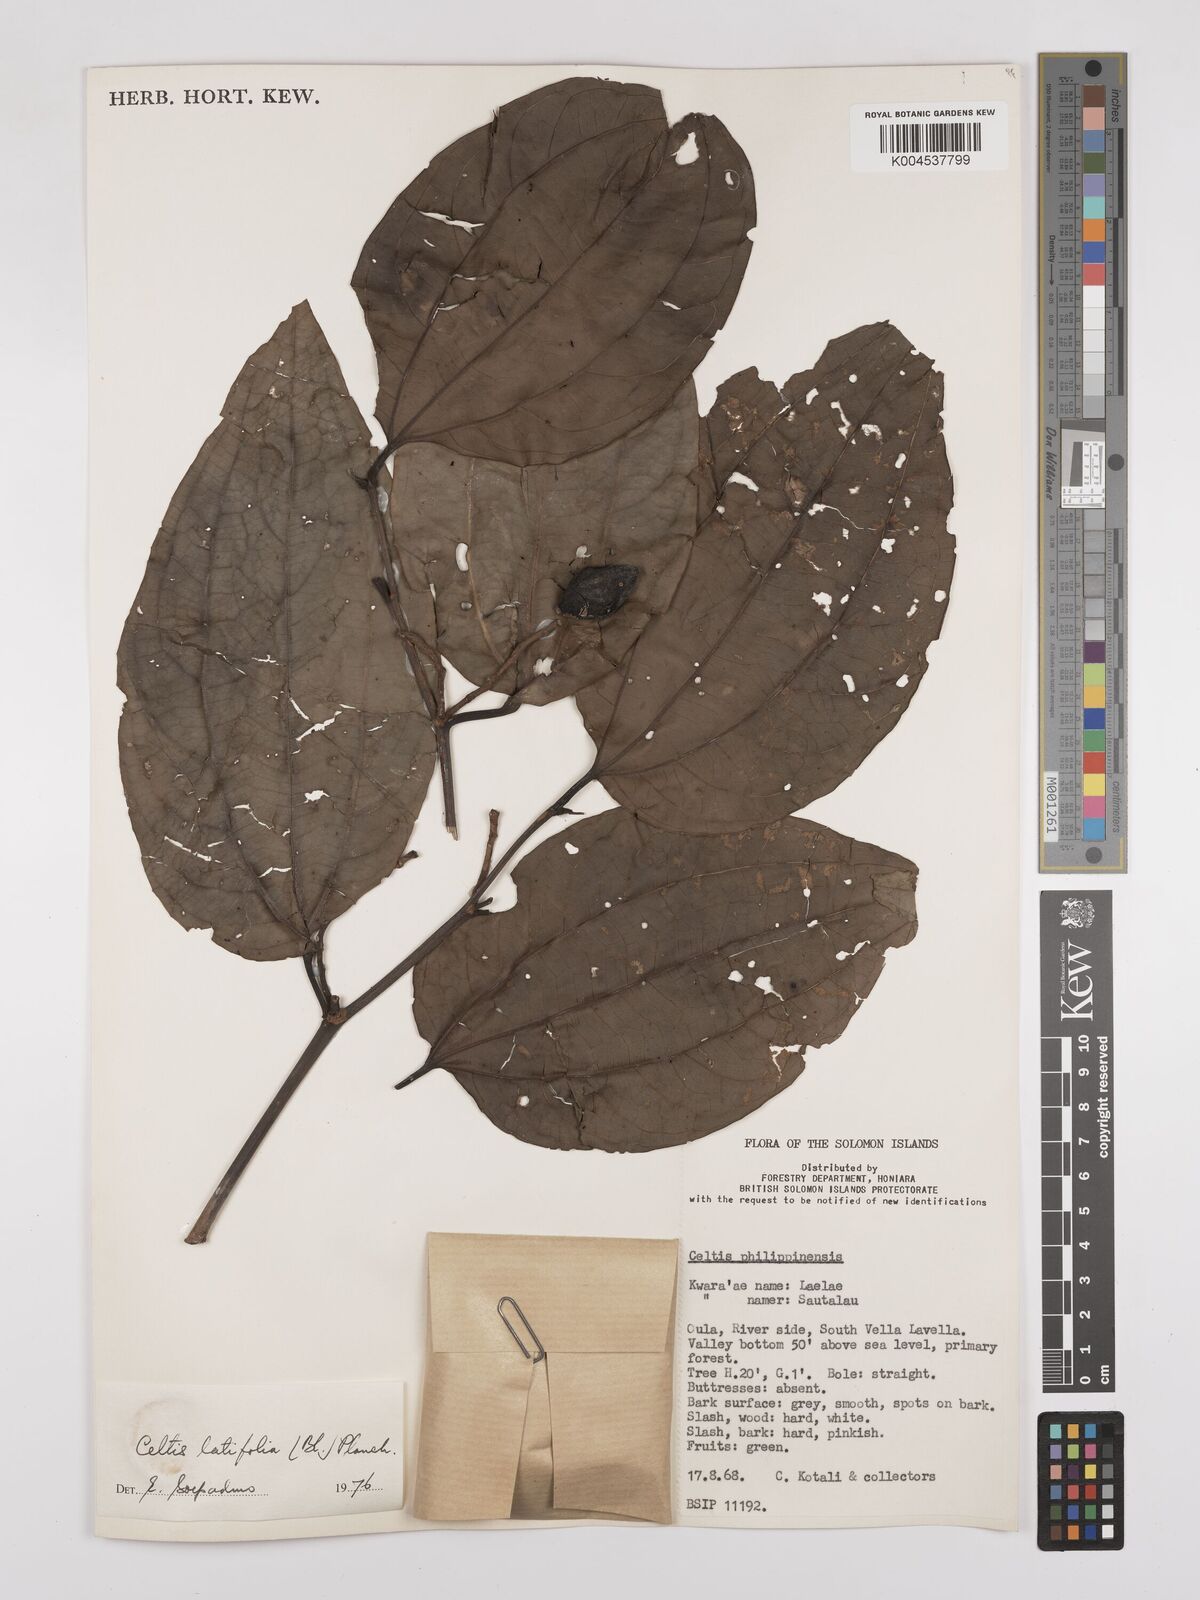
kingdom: Plantae
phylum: Tracheophyta
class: Magnoliopsida
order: Rosales
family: Cannabaceae
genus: Celtis
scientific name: Celtis latifolia
